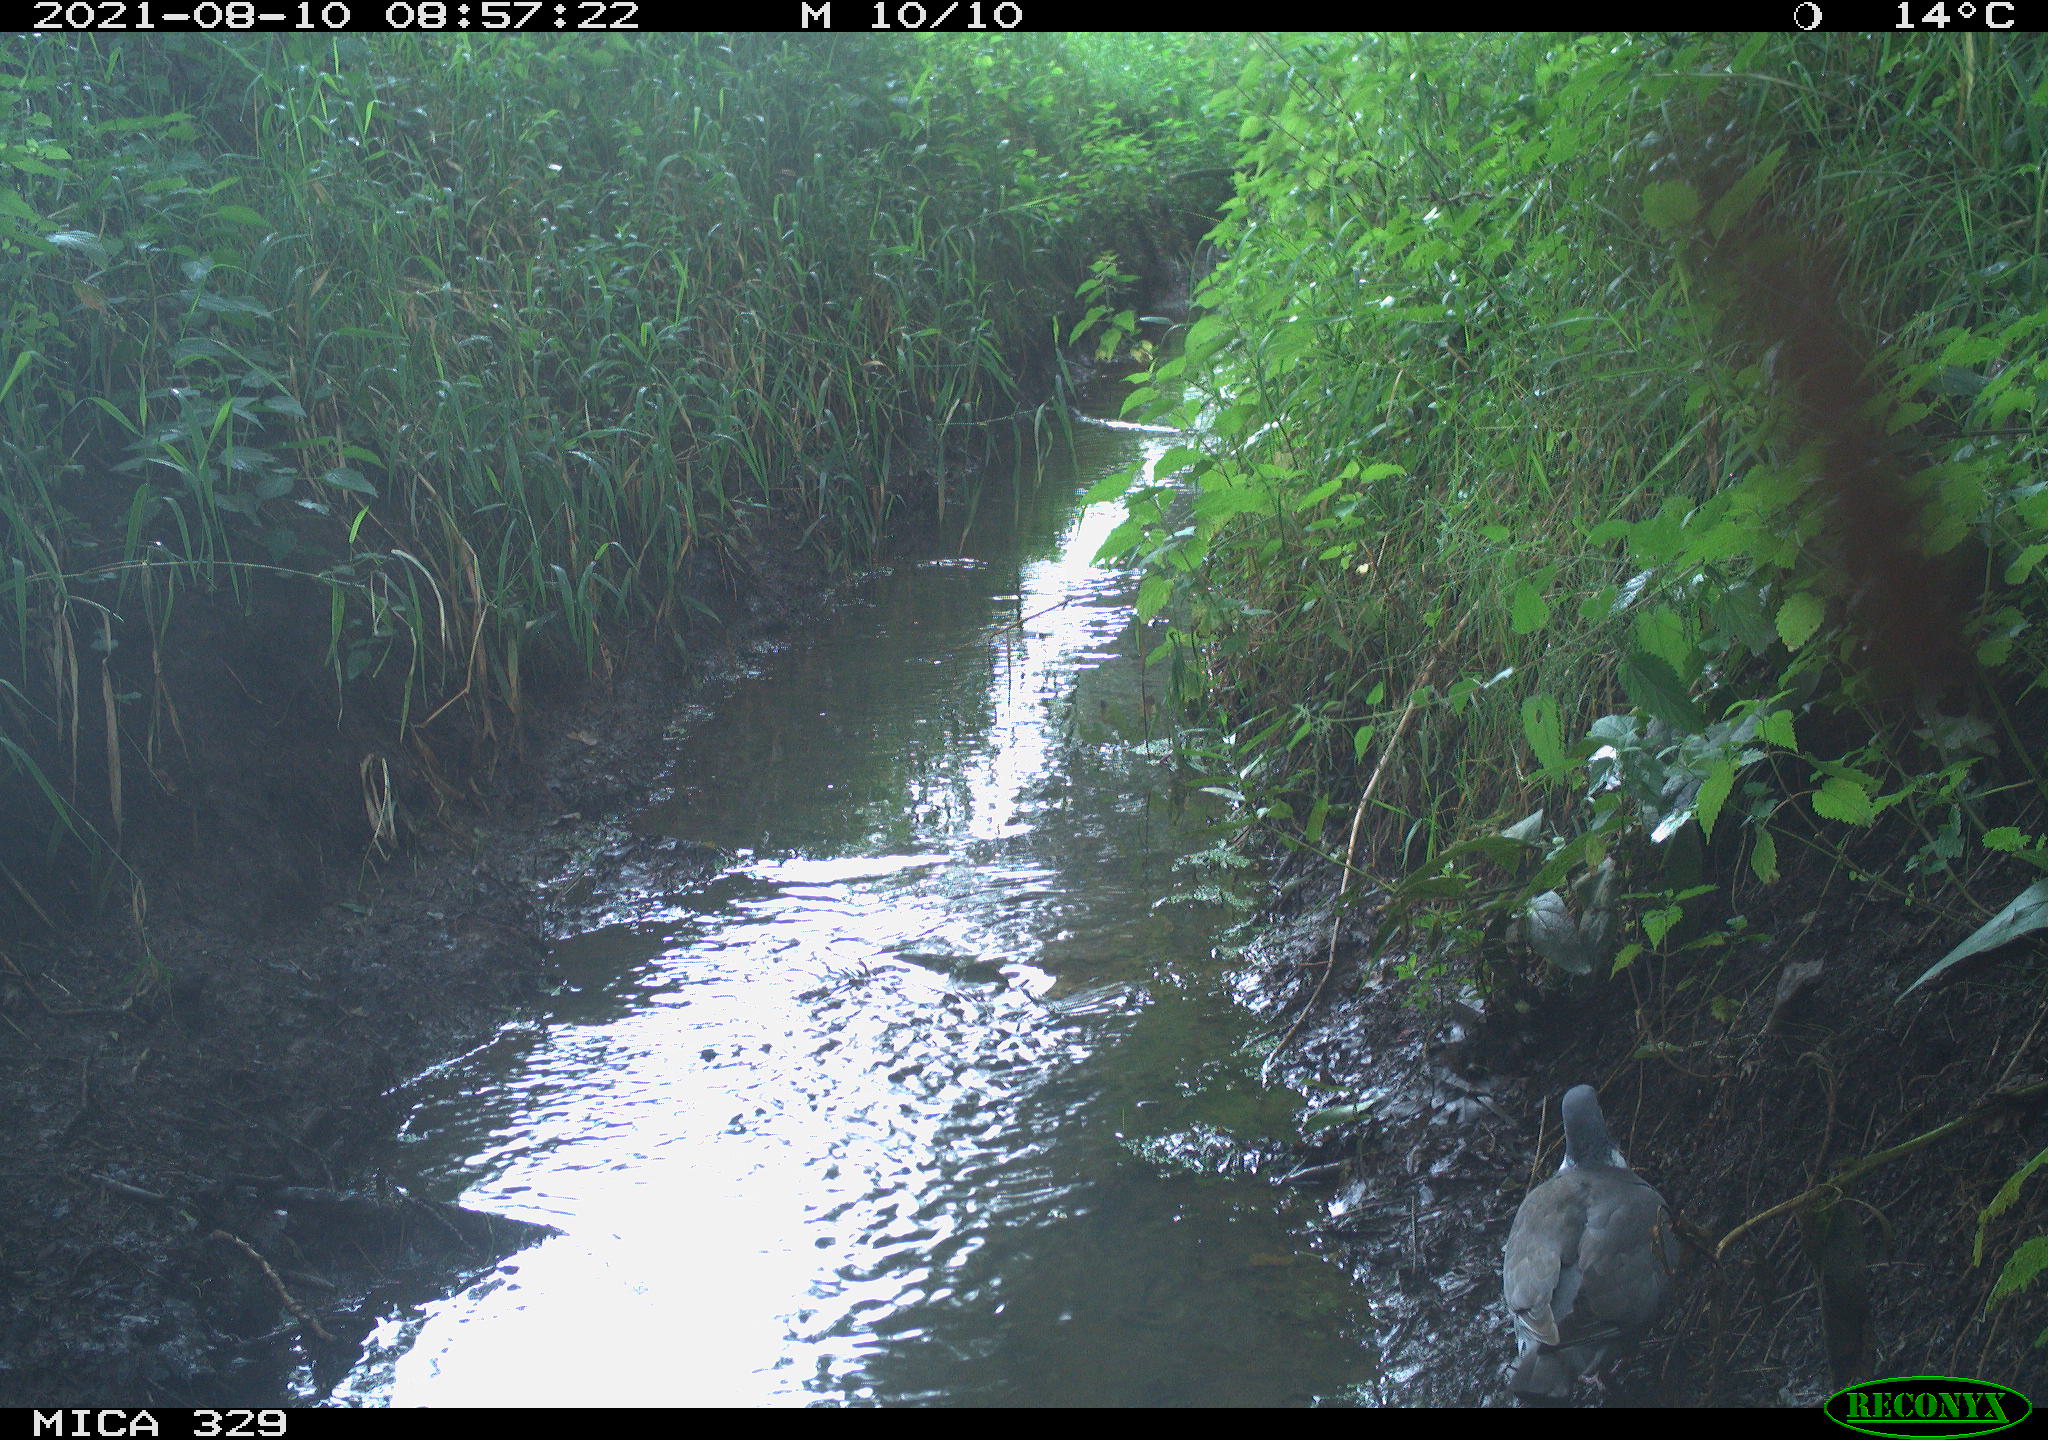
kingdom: Animalia
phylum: Chordata
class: Aves
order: Columbiformes
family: Columbidae
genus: Columba
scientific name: Columba palumbus
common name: Common wood pigeon
